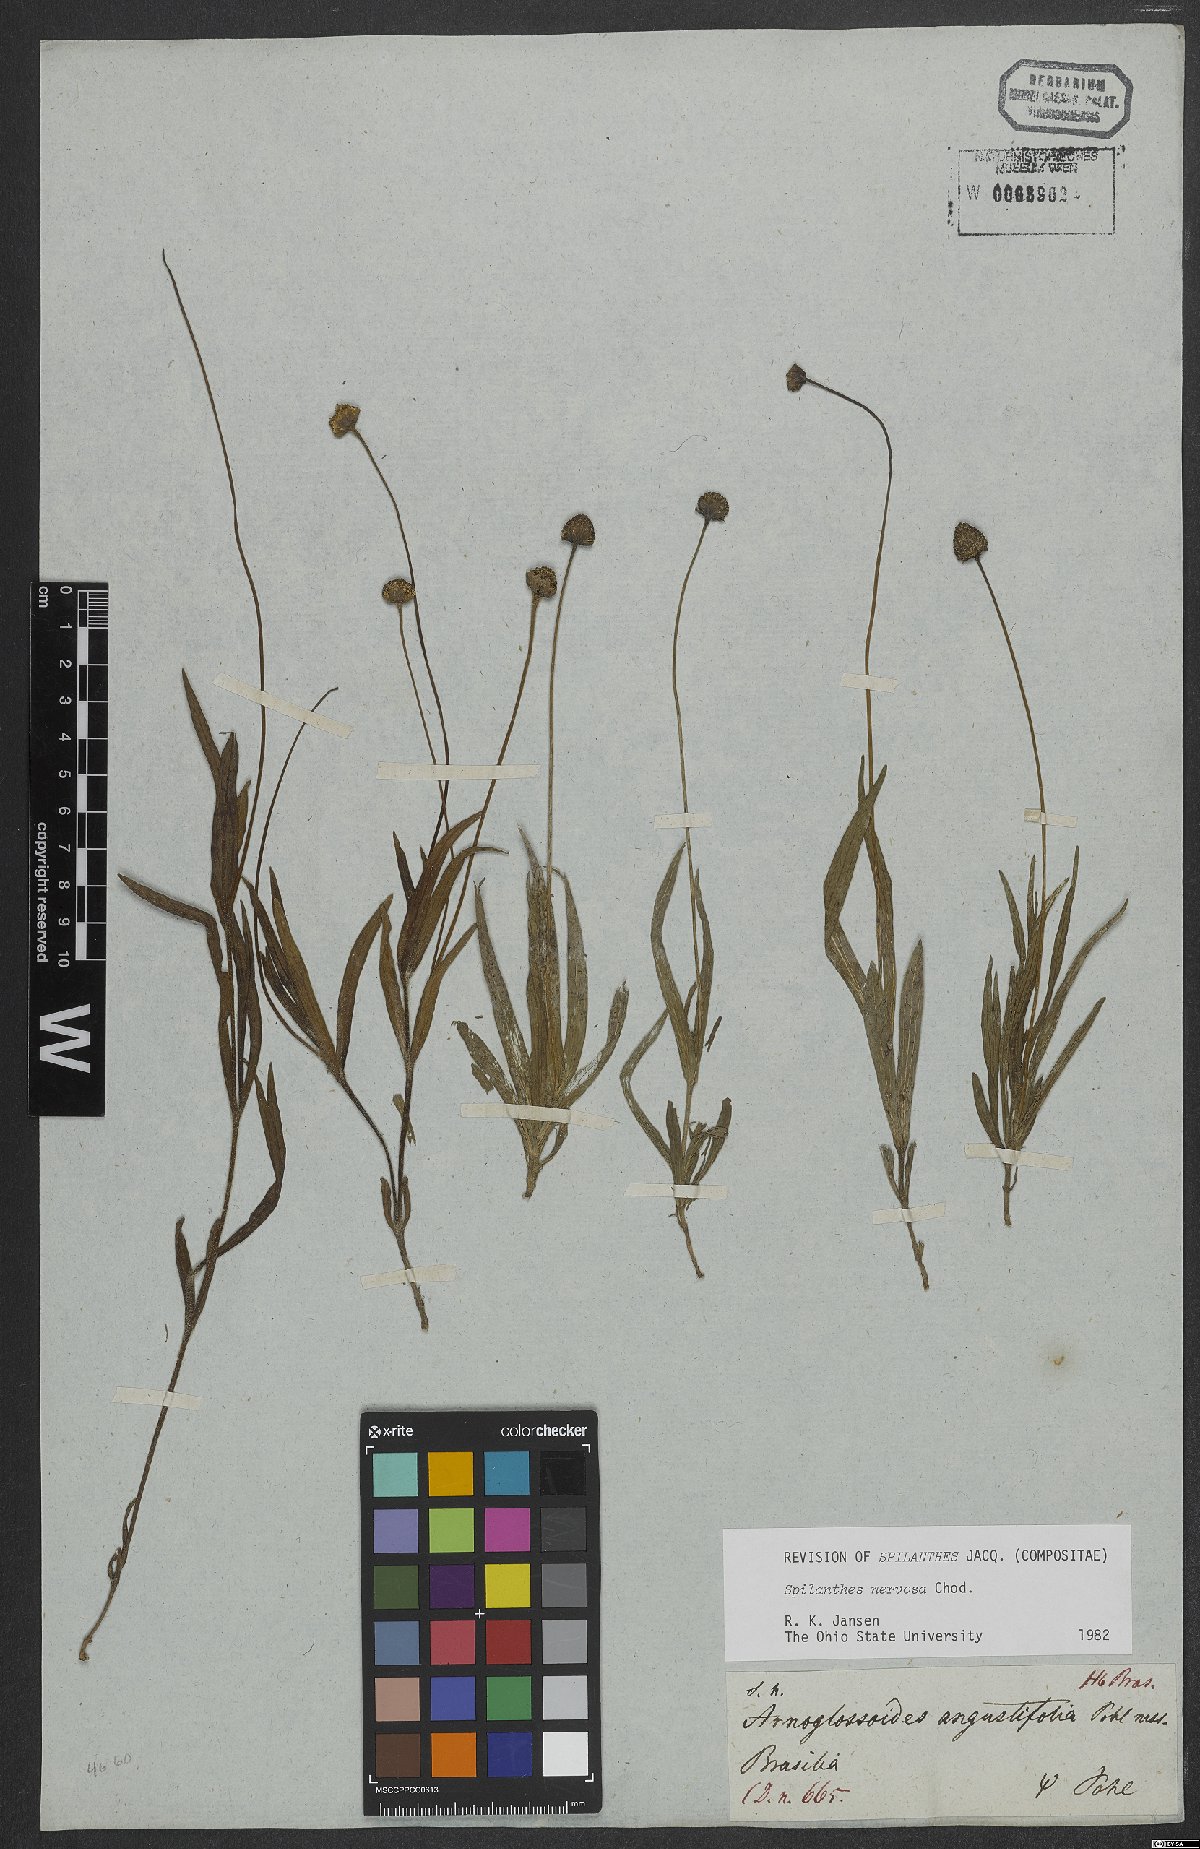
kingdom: Plantae
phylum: Tracheophyta
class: Magnoliopsida
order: Asterales
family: Asteraceae
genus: Spilanthes
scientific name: Spilanthes nervosa
